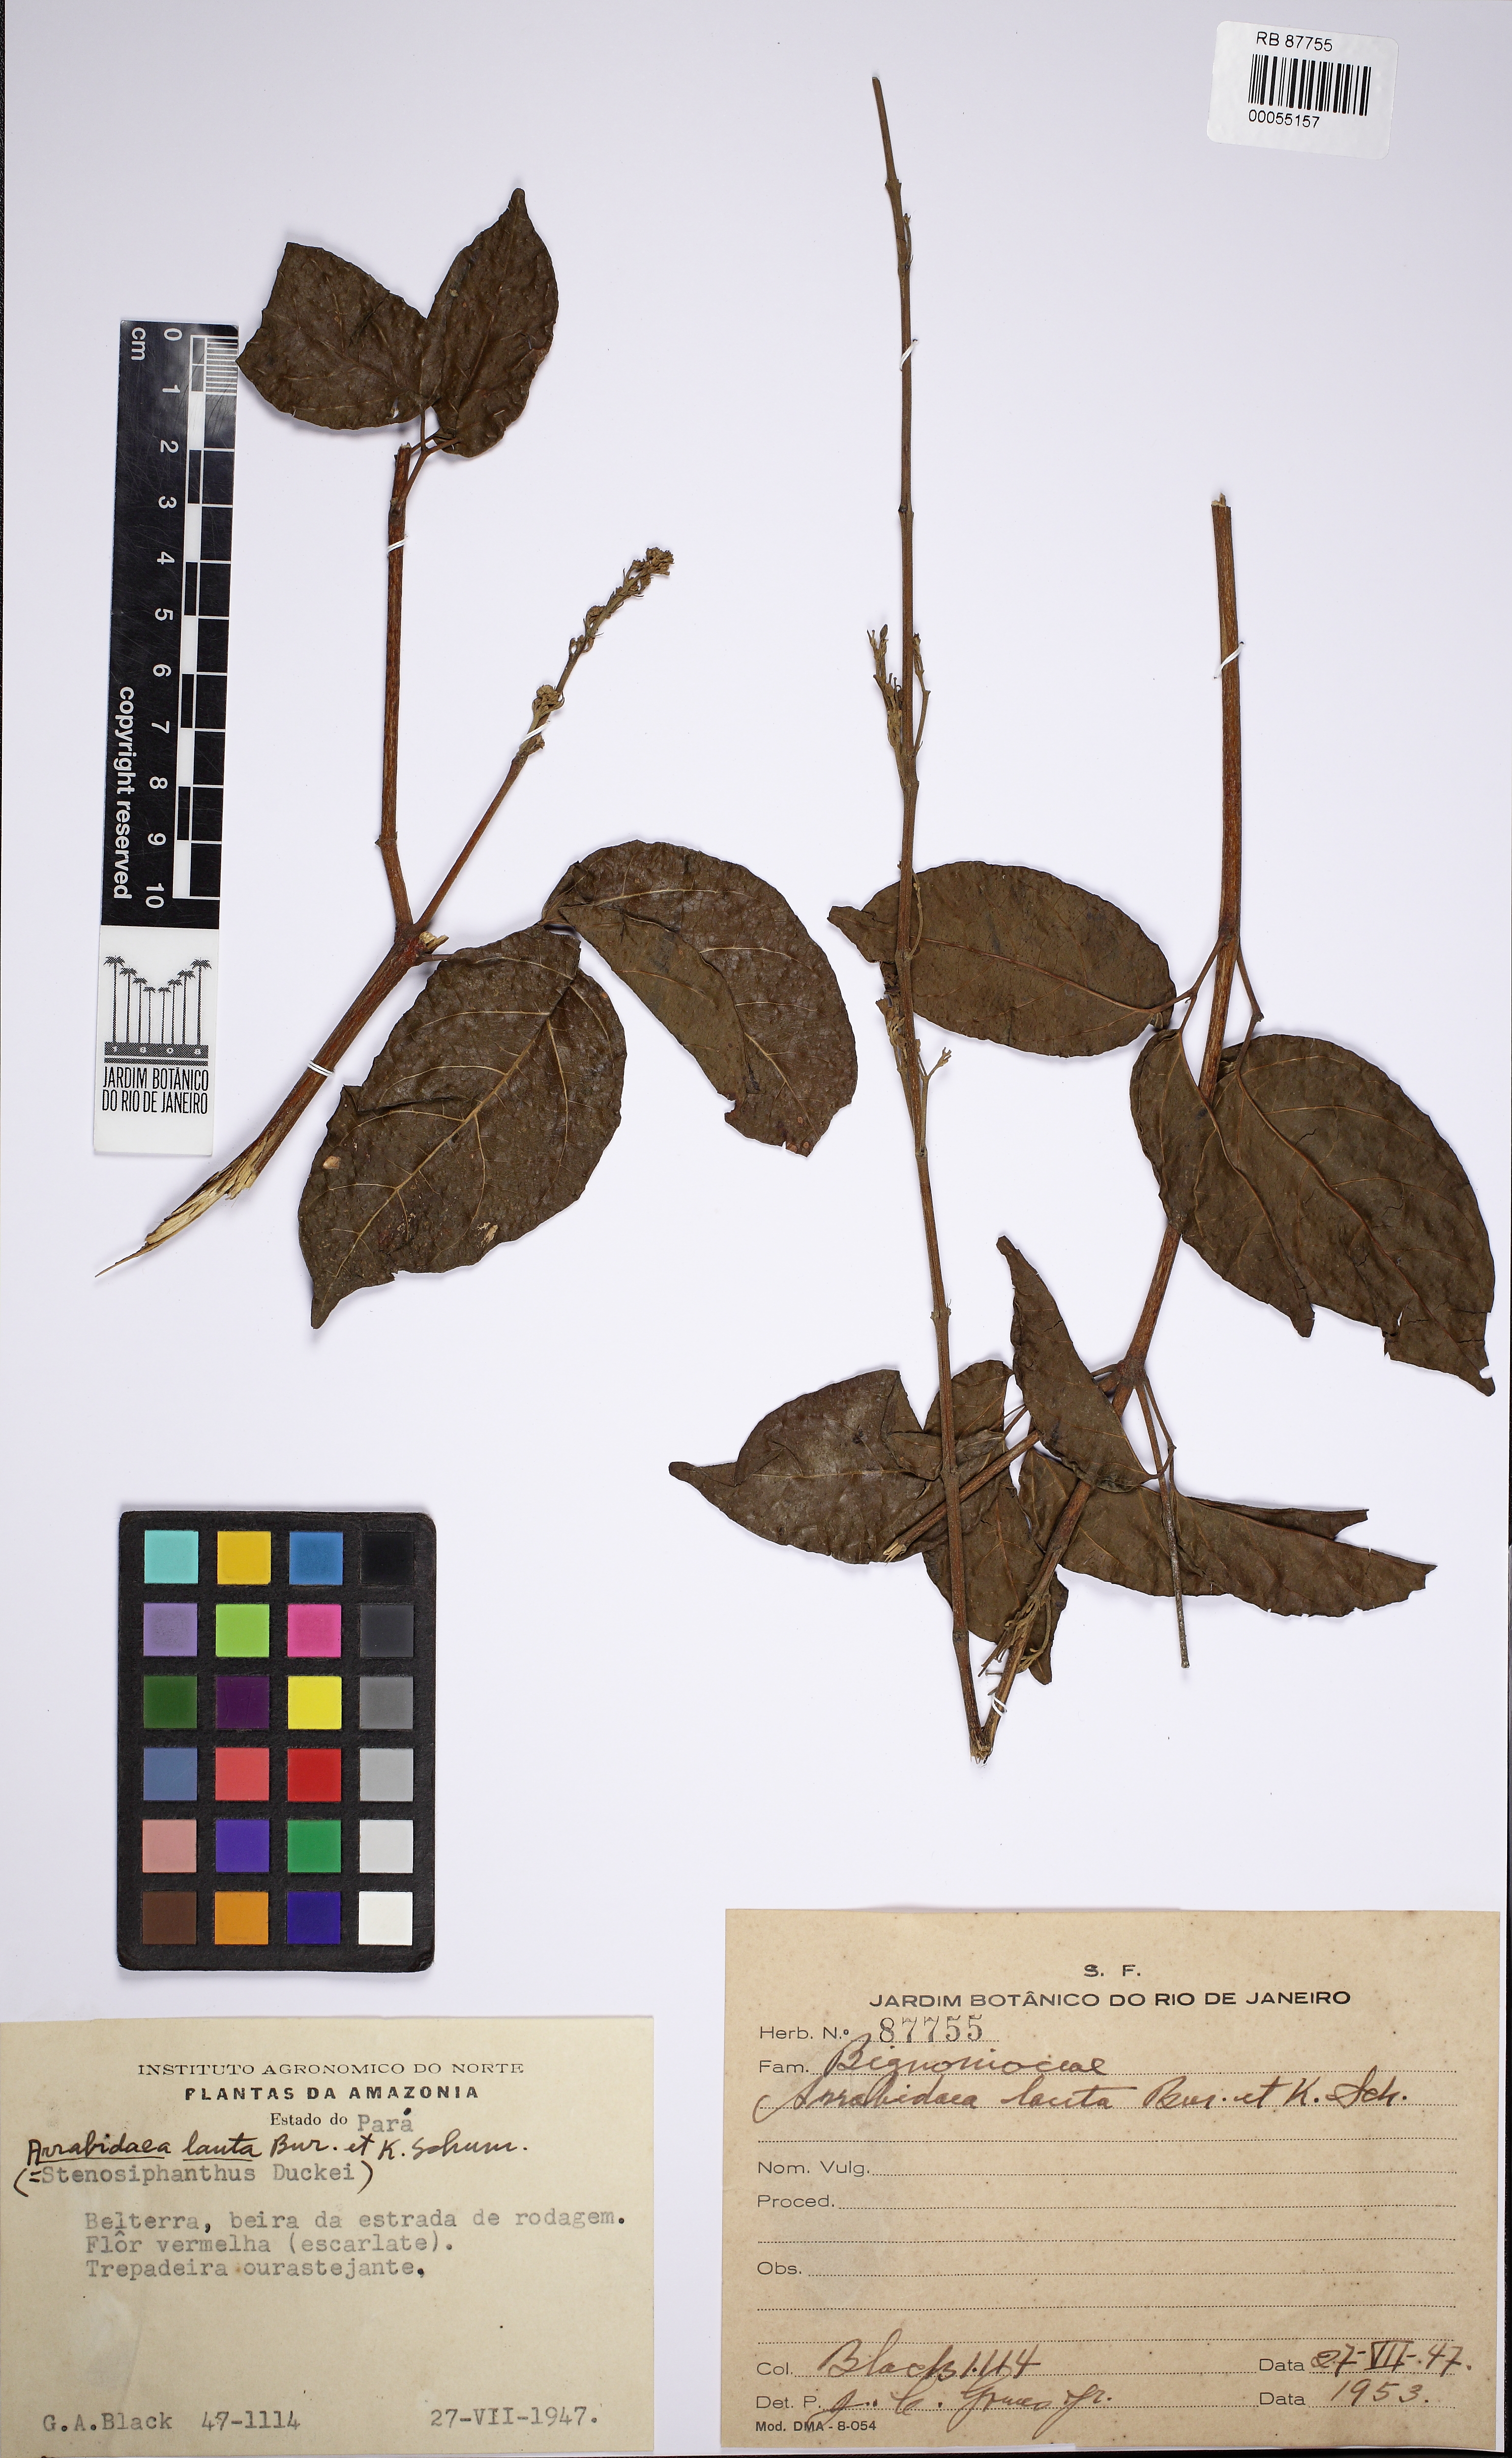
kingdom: Plantae
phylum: Tracheophyta
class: Magnoliopsida
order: Lamiales
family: Bignoniaceae
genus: Fridericia
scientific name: Fridericia lauta
